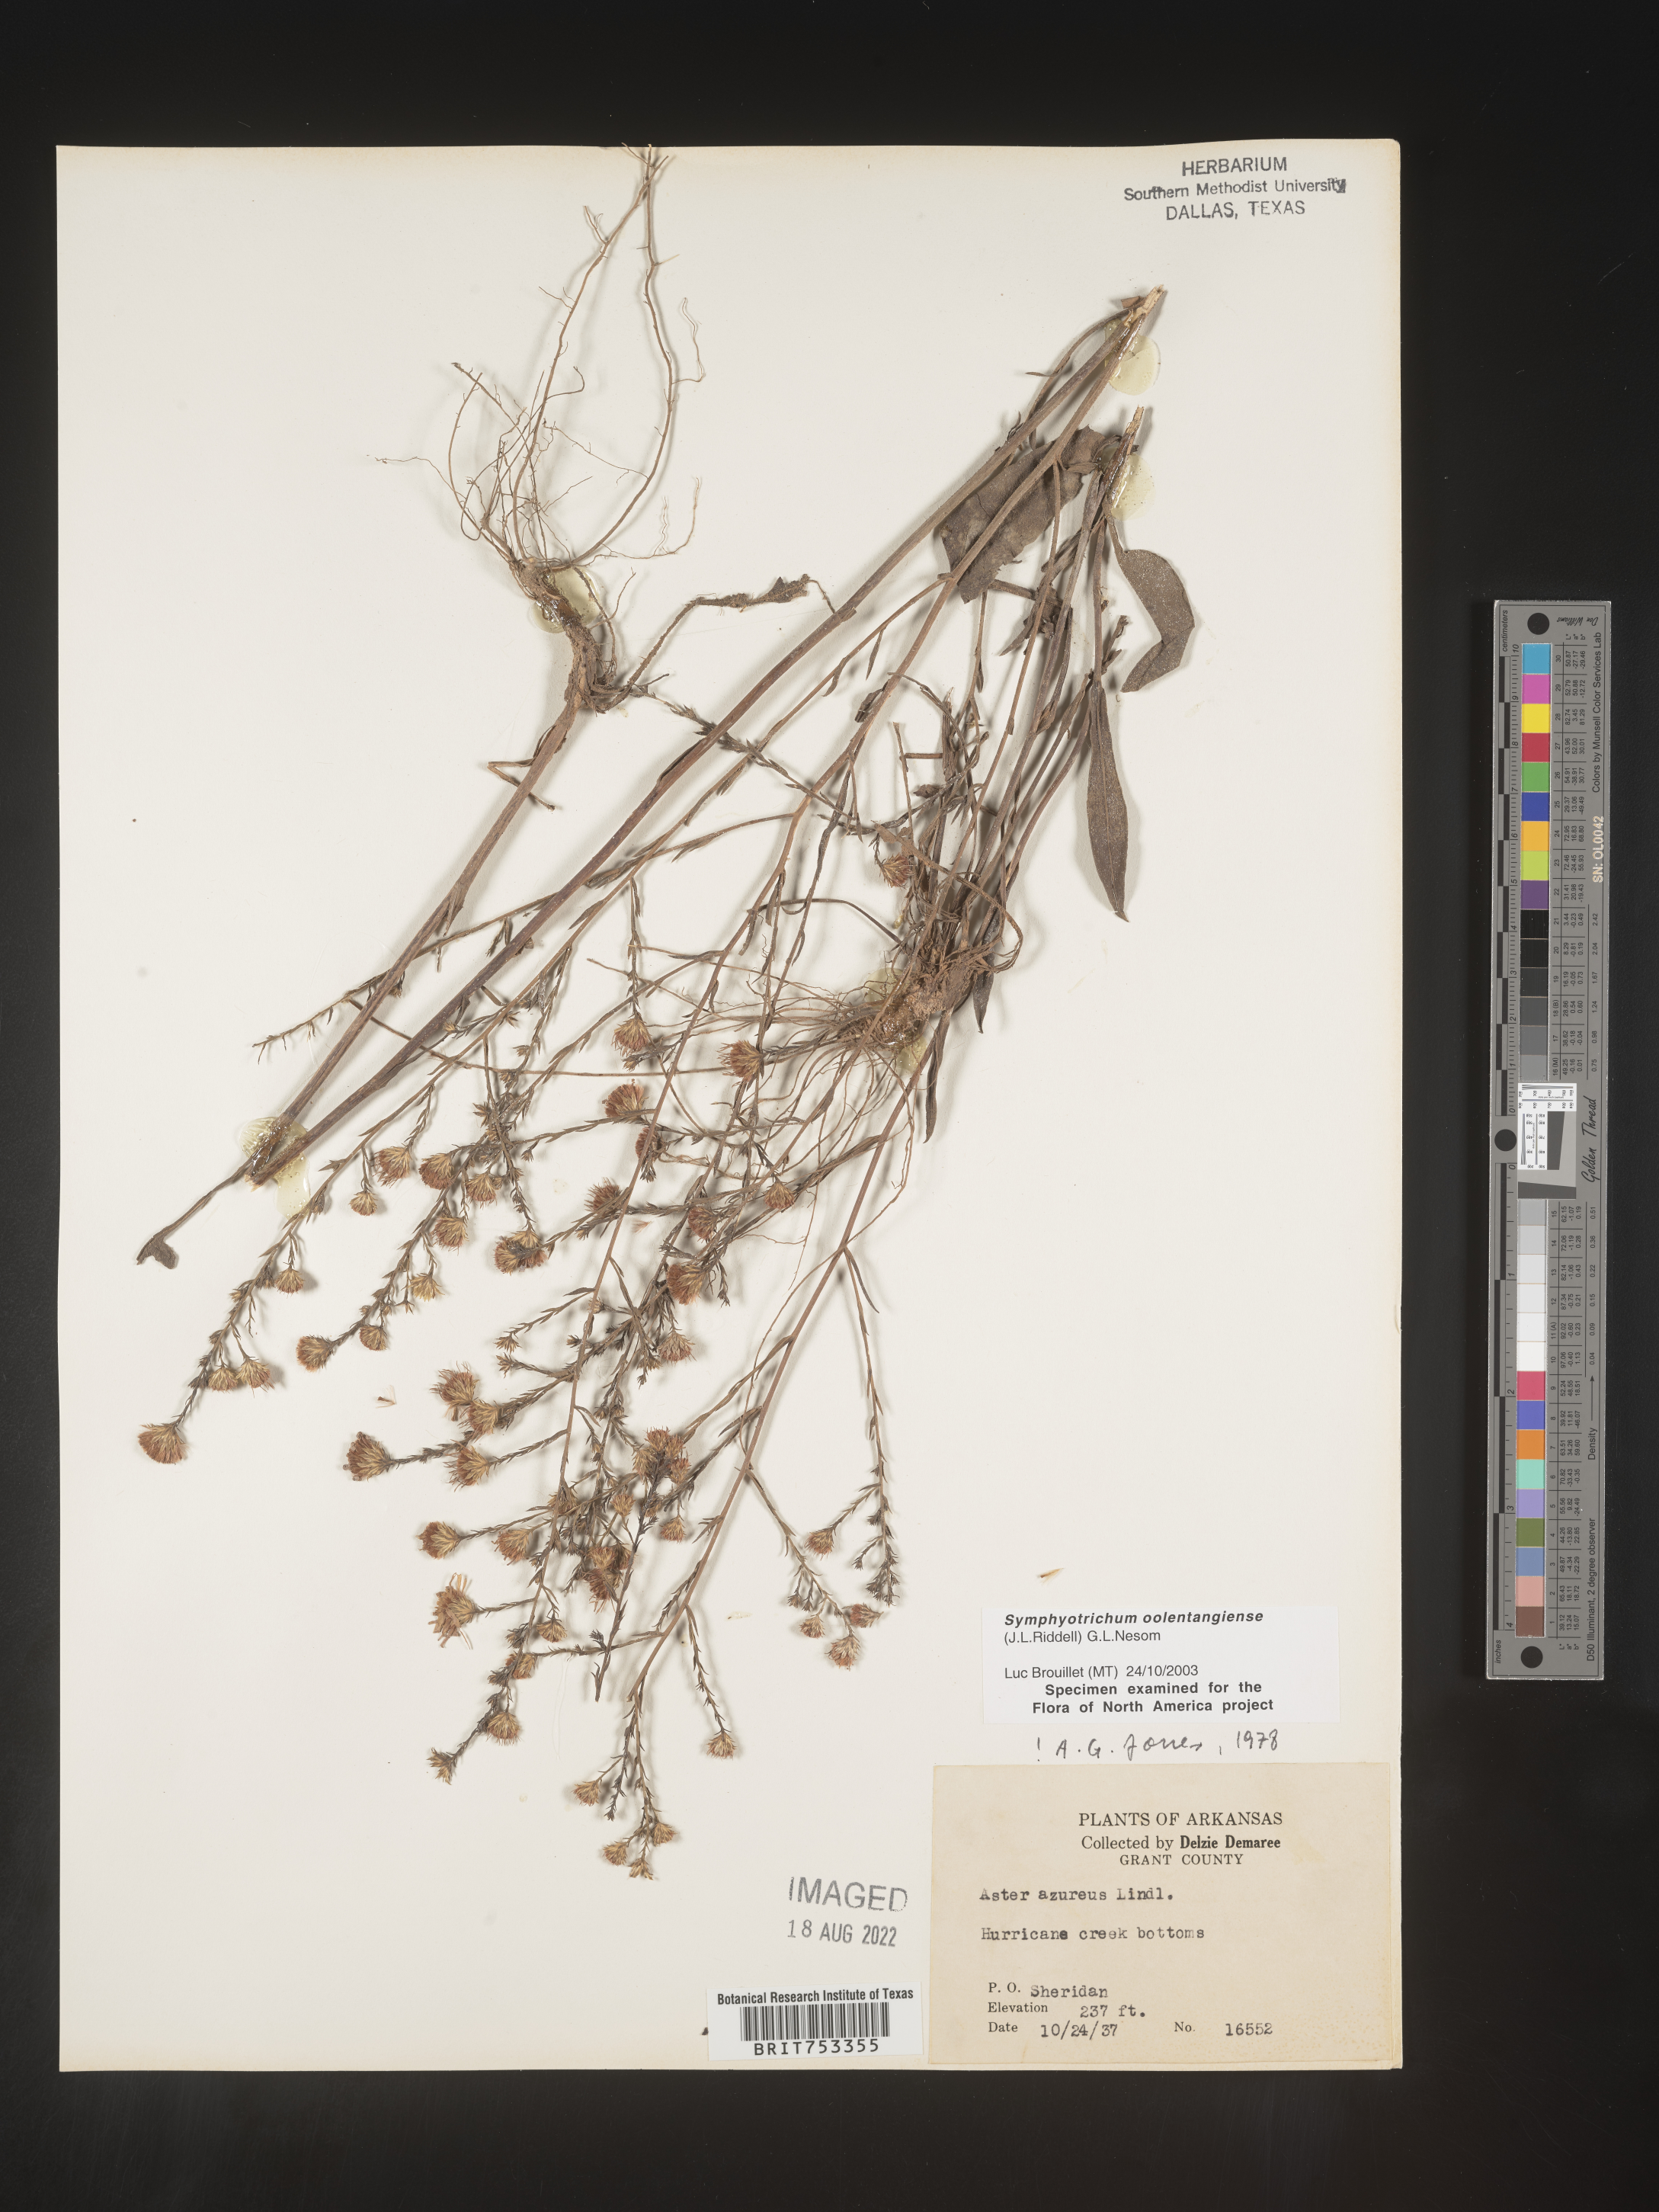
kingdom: Plantae
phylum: Tracheophyta
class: Magnoliopsida
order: Asterales
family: Asteraceae
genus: Symphyotrichum
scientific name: Symphyotrichum oolentangiense
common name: Azure aster
